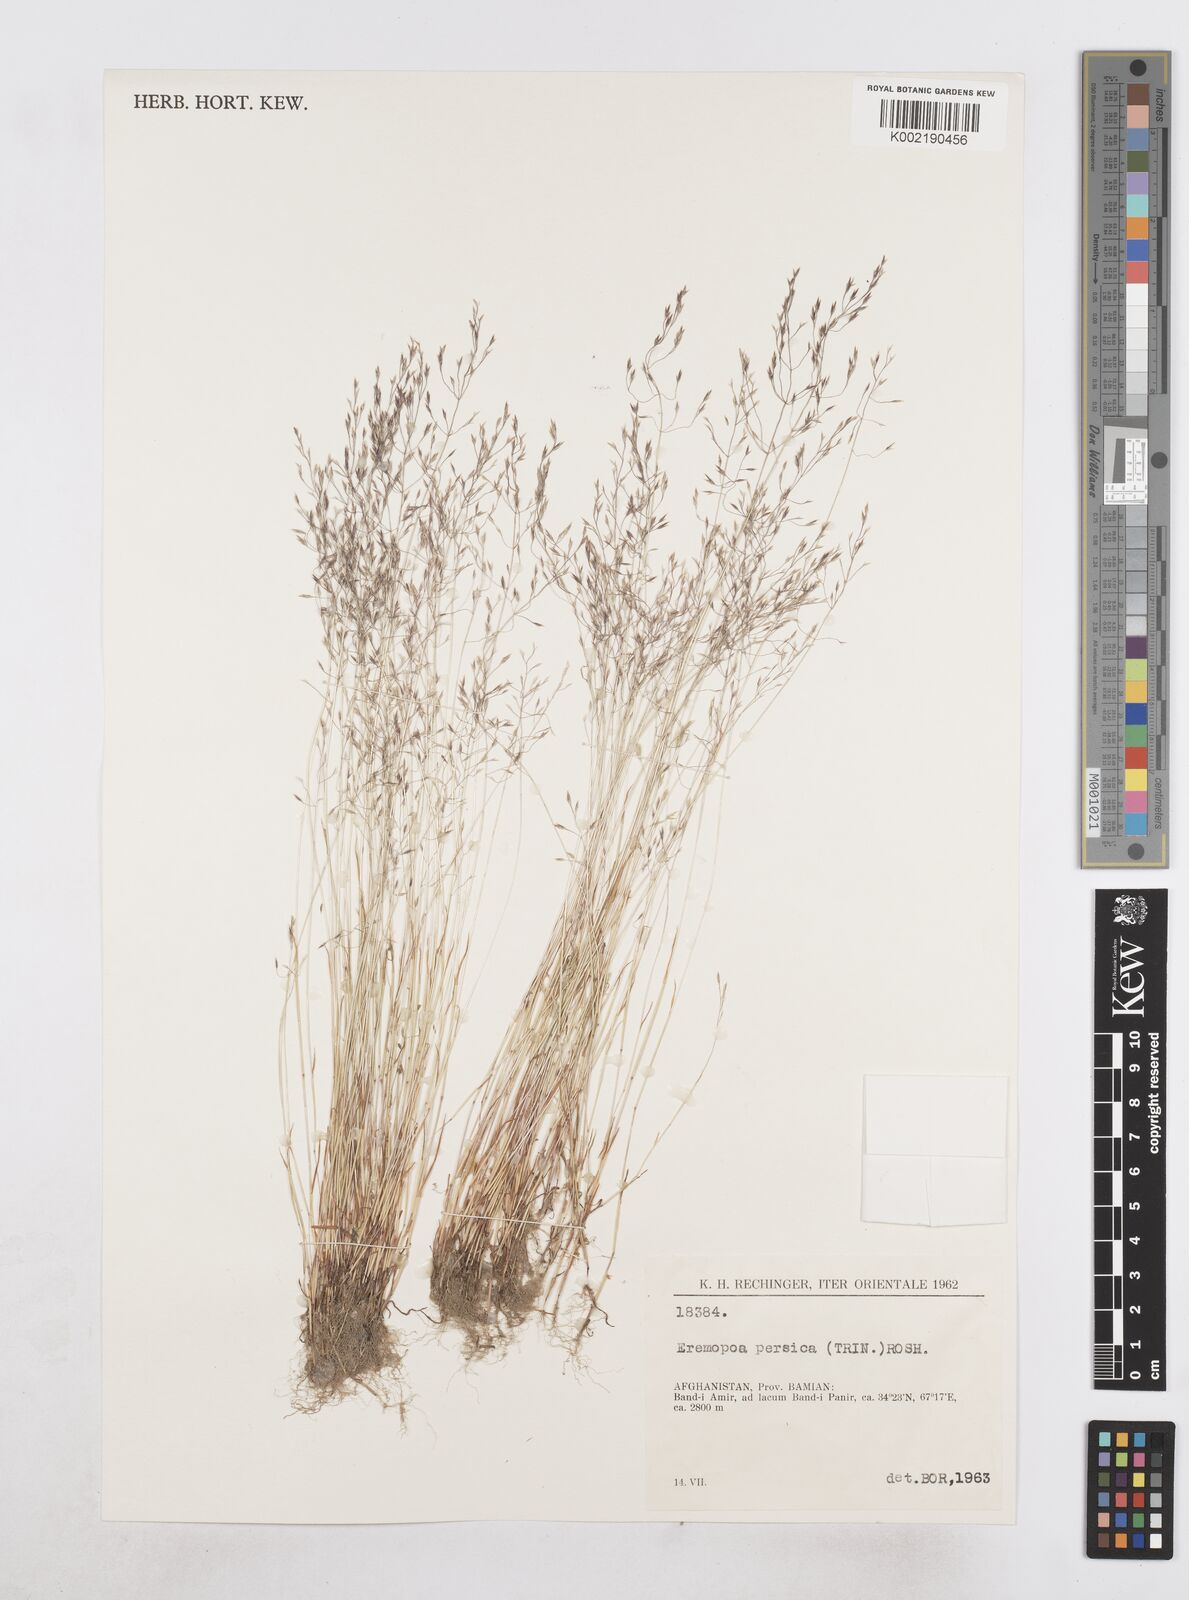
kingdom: Plantae
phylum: Tracheophyta
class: Liliopsida
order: Poales
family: Poaceae
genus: Poa
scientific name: Poa diaphora
